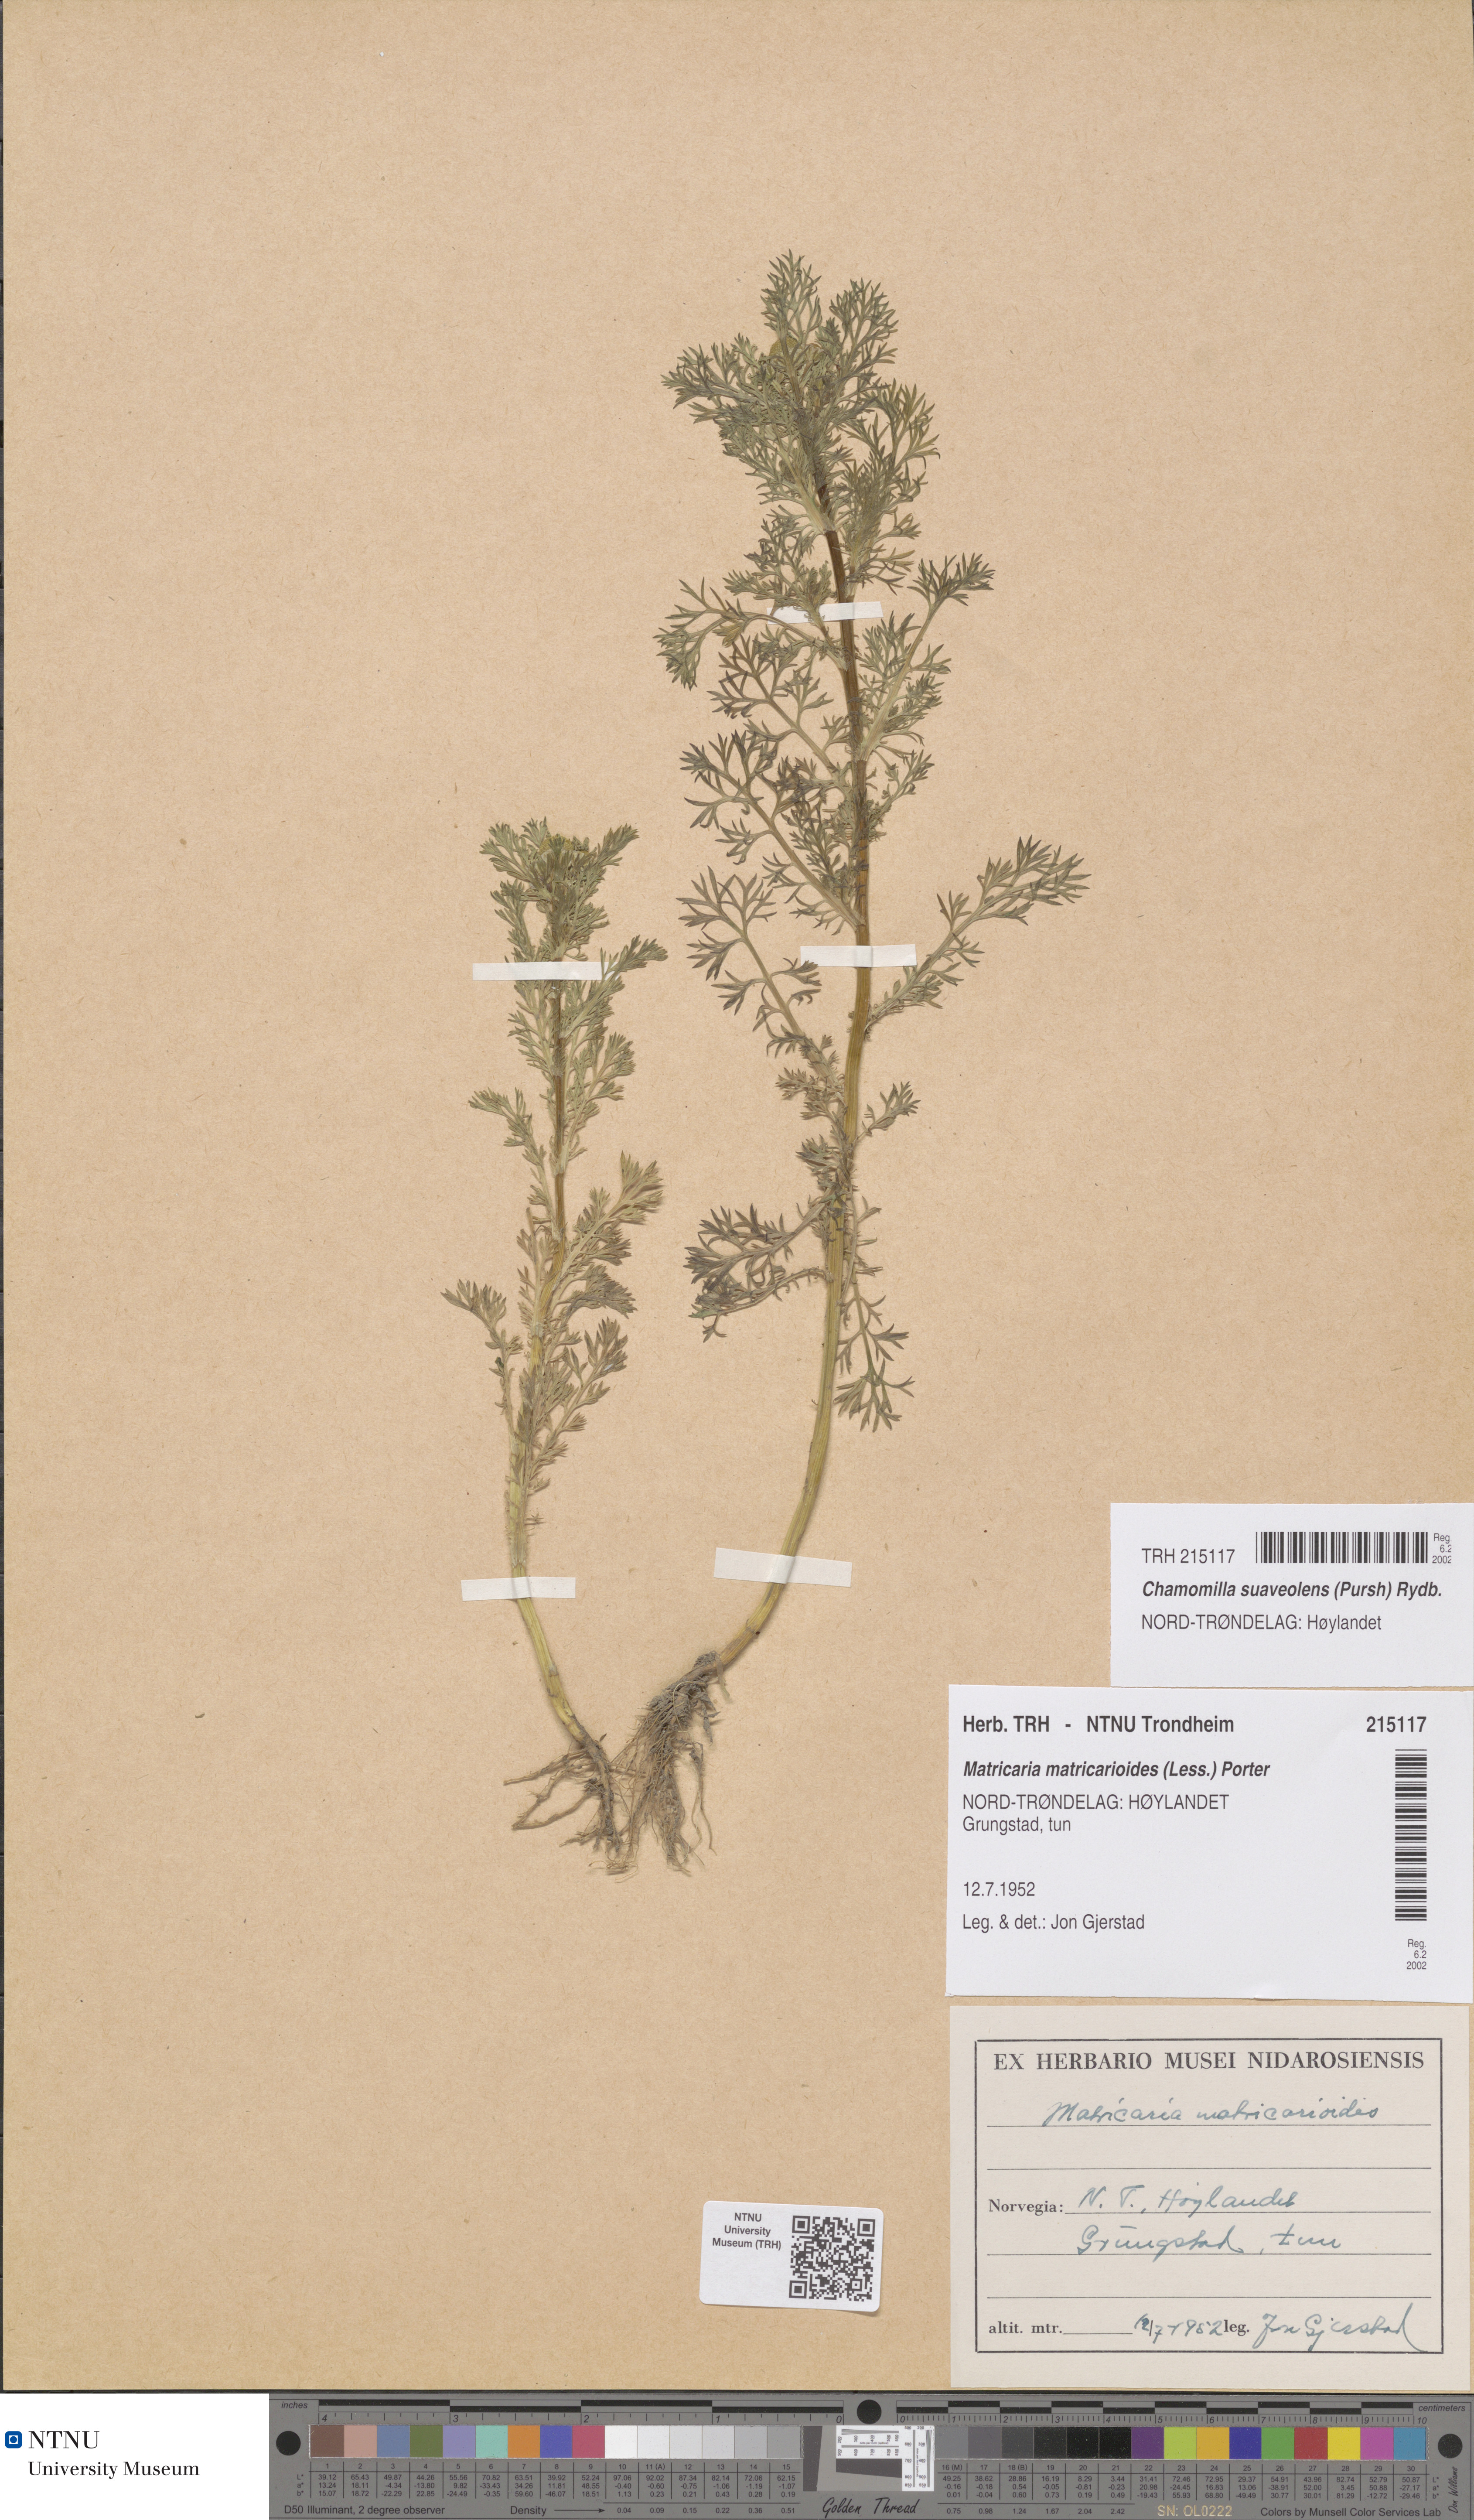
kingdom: Plantae
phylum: Tracheophyta
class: Magnoliopsida
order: Asterales
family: Asteraceae
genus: Matricaria
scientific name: Matricaria discoidea
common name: Disc mayweed
